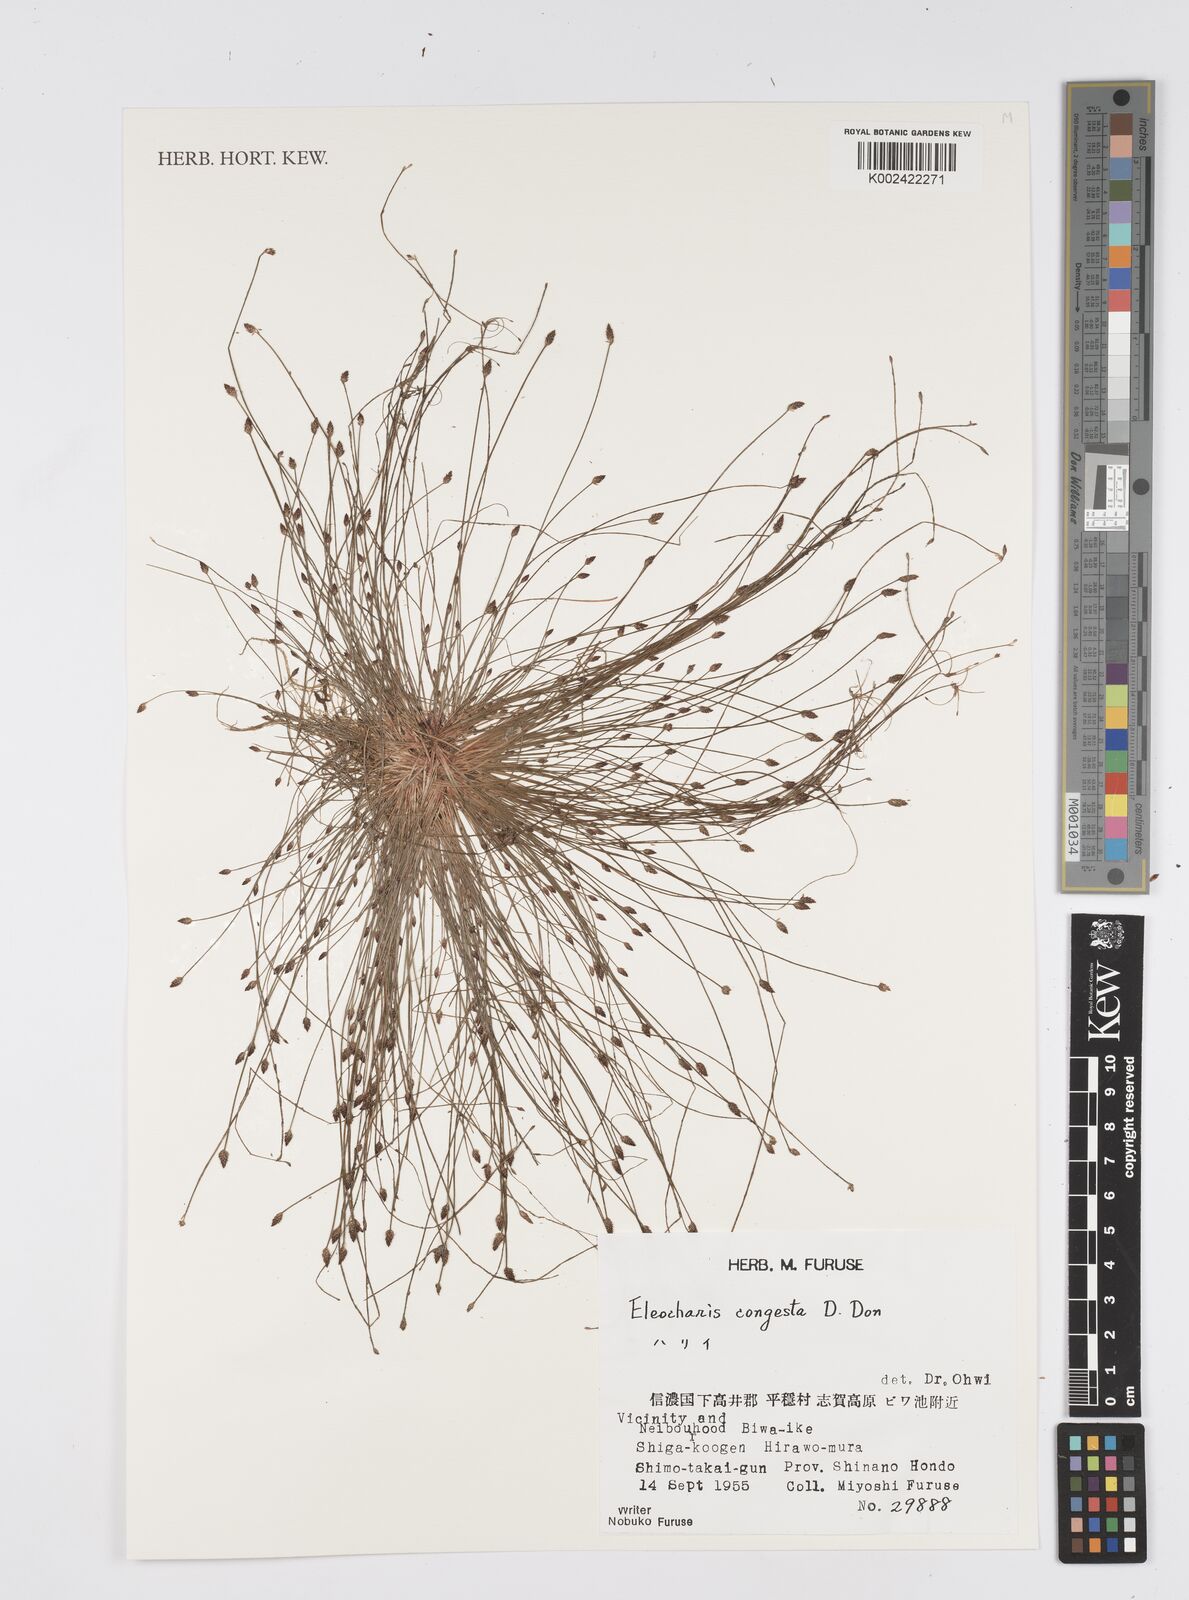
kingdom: Plantae
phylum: Tracheophyta
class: Liliopsida
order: Poales
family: Cyperaceae
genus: Eleocharis
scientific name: Eleocharis congesta
